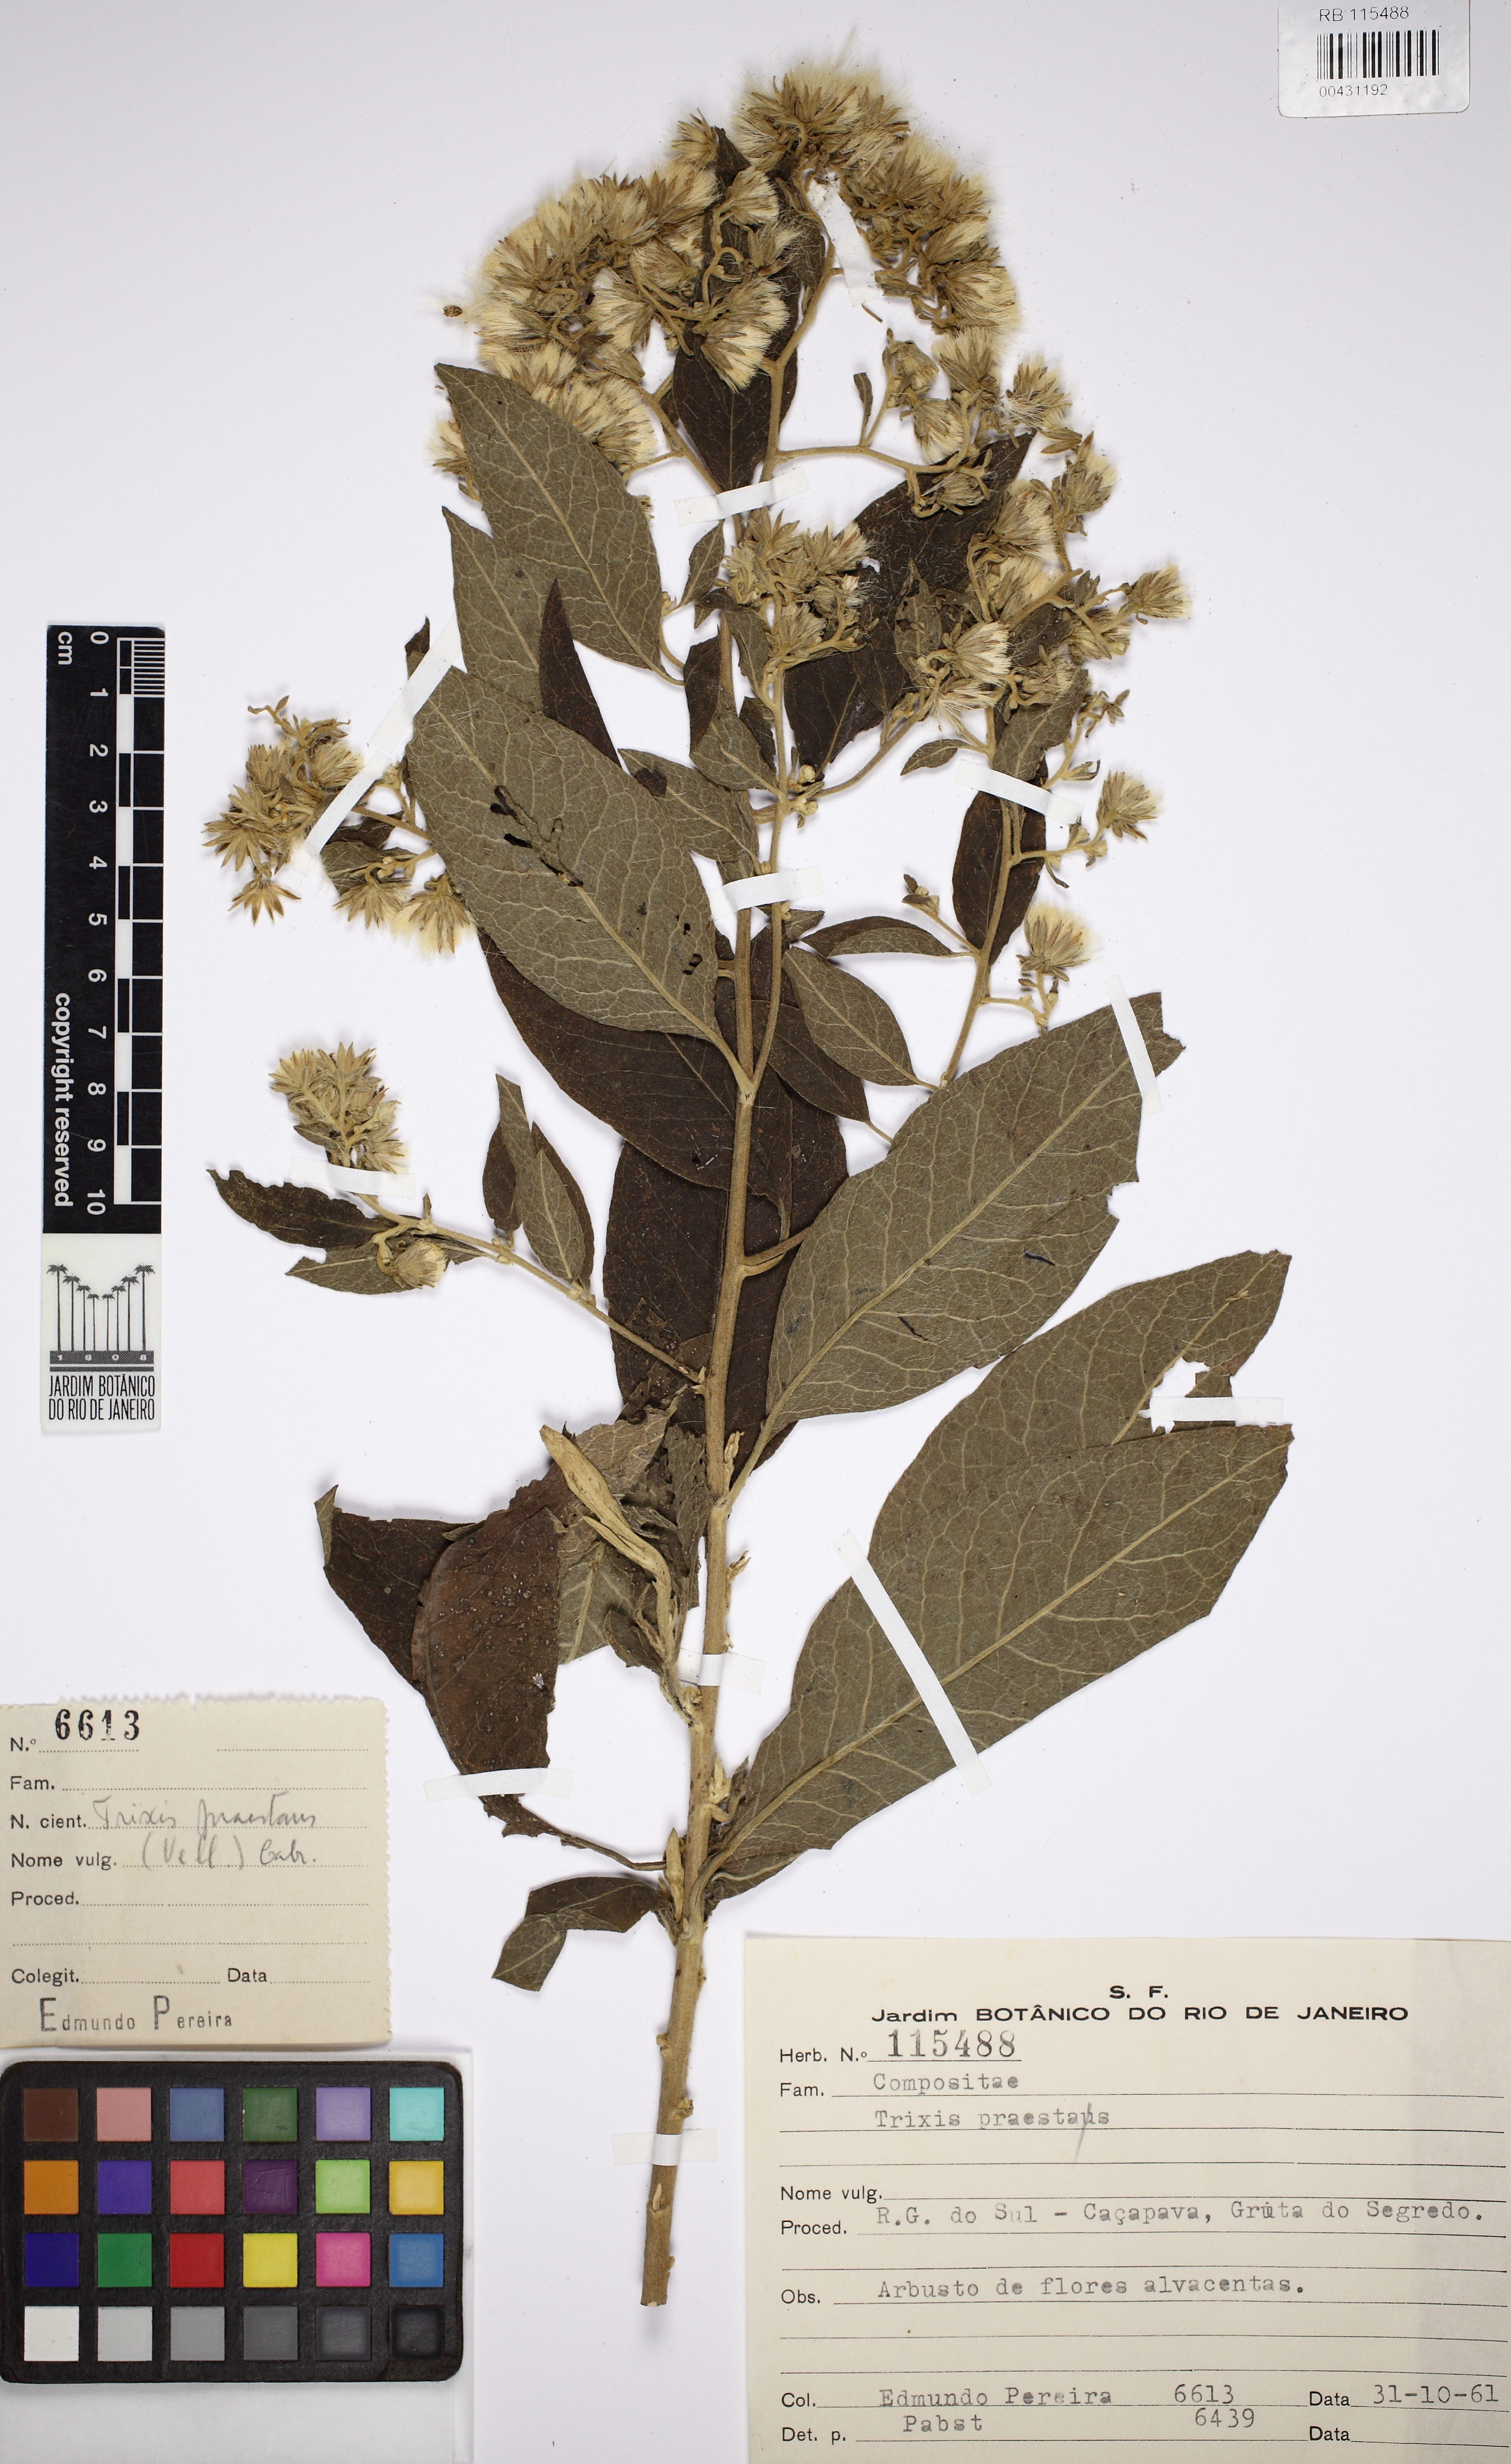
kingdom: Plantae
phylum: Tracheophyta
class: Magnoliopsida
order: Asterales
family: Asteraceae
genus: Trixis
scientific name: Trixis praestans
